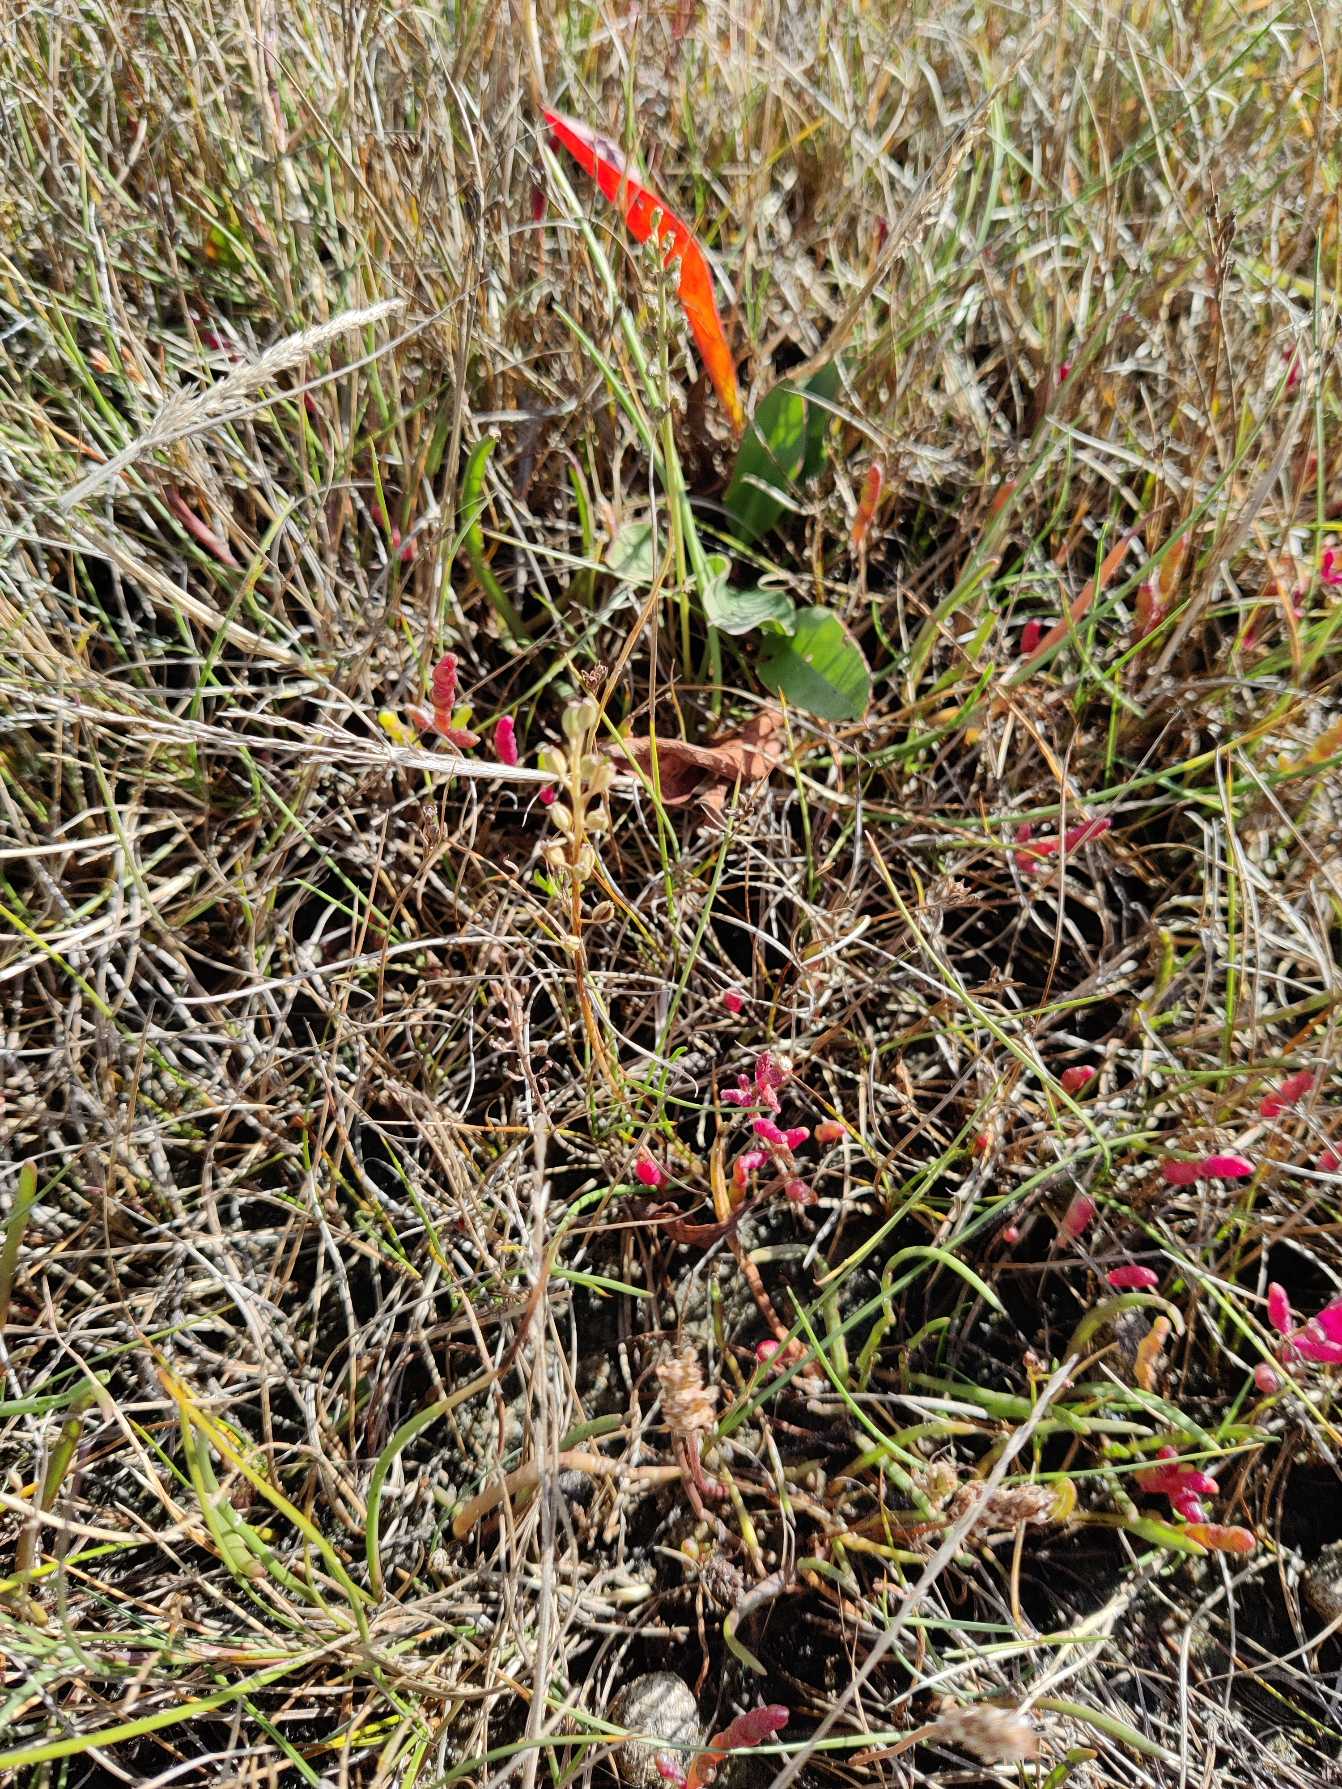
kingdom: Plantae
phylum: Tracheophyta
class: Liliopsida
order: Alismatales
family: Juncaginaceae
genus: Triglochin
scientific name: Triglochin maritima
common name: Strand-trehage
